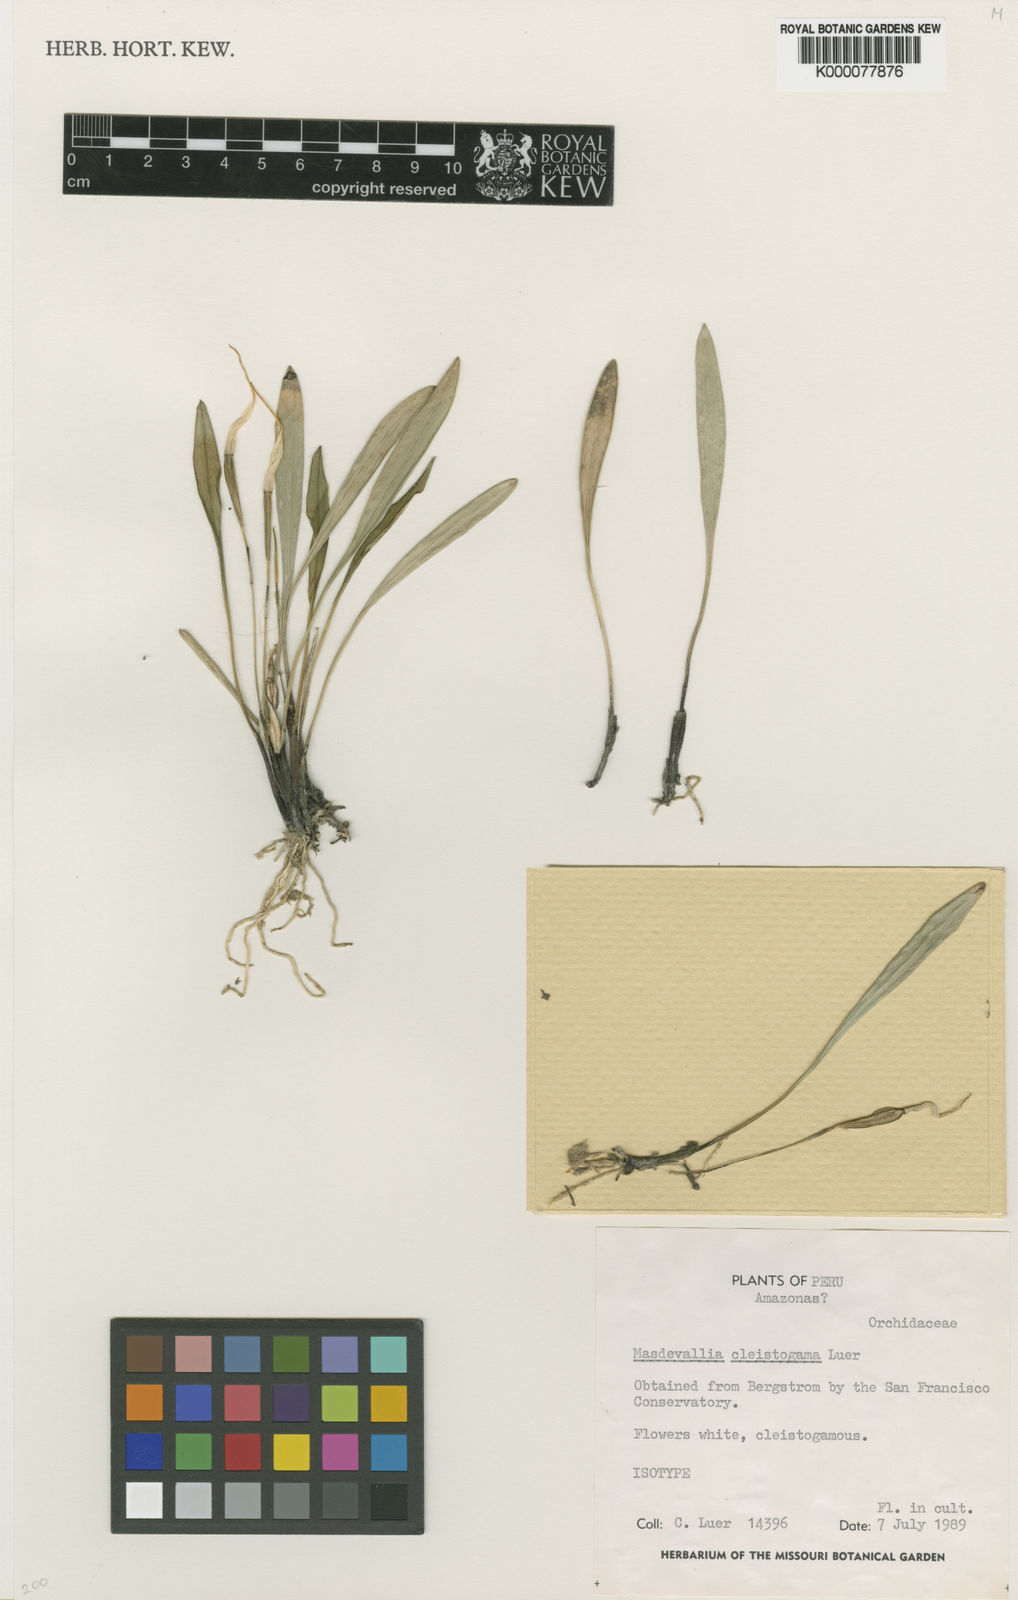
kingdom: Plantae
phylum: Tracheophyta
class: Liliopsida
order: Asparagales
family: Orchidaceae
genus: Masdevallia
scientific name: Masdevallia cleistogama
